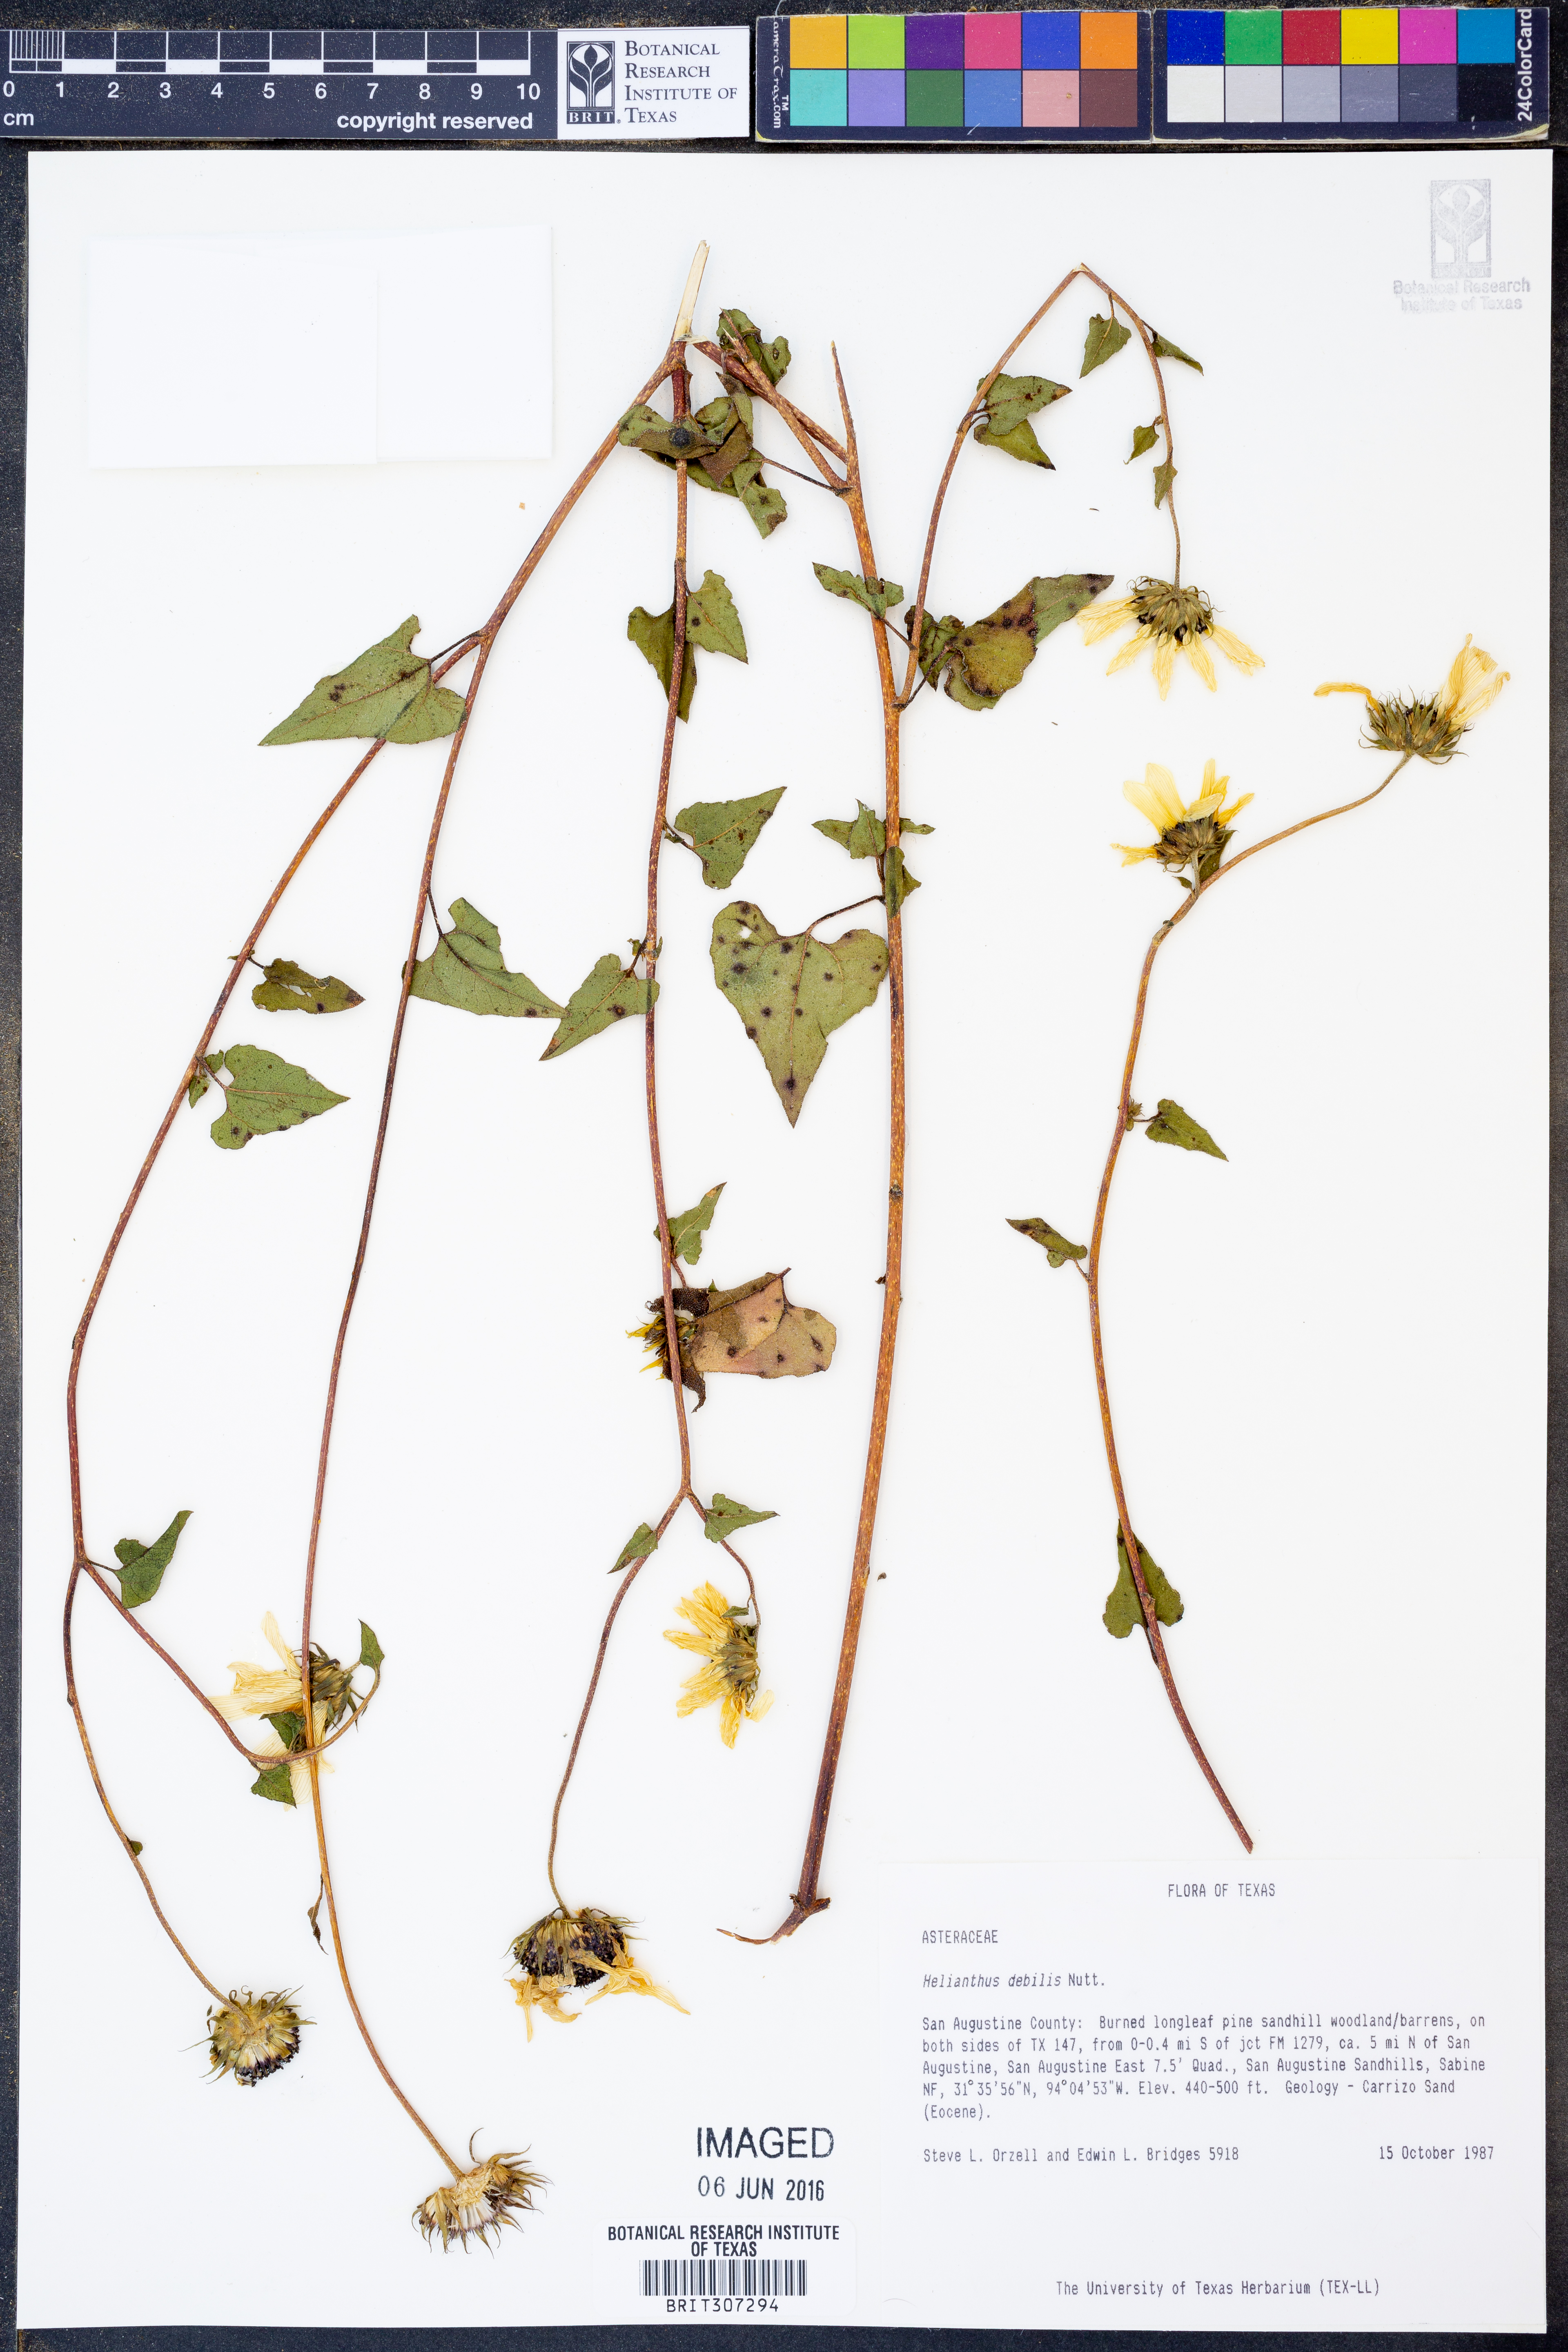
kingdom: Plantae
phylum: Tracheophyta
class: Magnoliopsida
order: Asterales
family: Asteraceae
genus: Helianthus
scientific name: Helianthus debilis
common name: Weak sunflower
